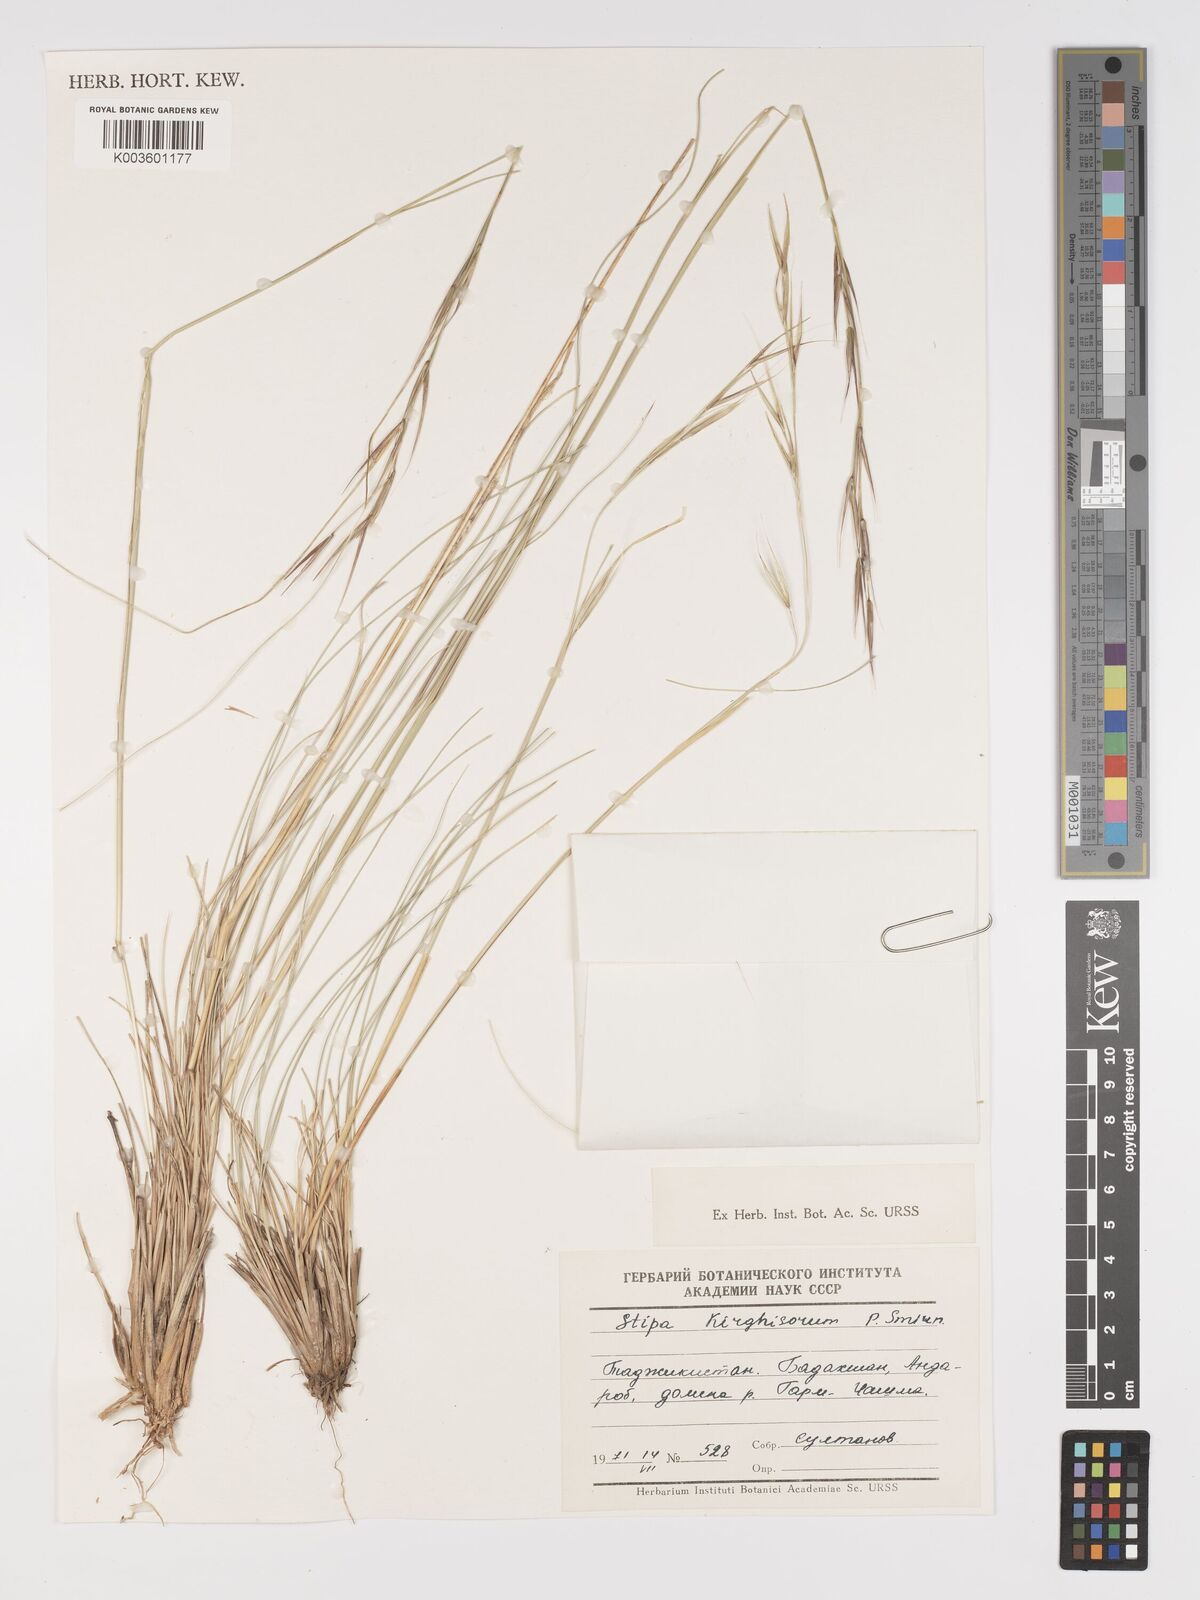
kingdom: Plantae
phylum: Tracheophyta
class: Liliopsida
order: Poales
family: Poaceae
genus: Stipa
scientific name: Stipa kirghisorum
